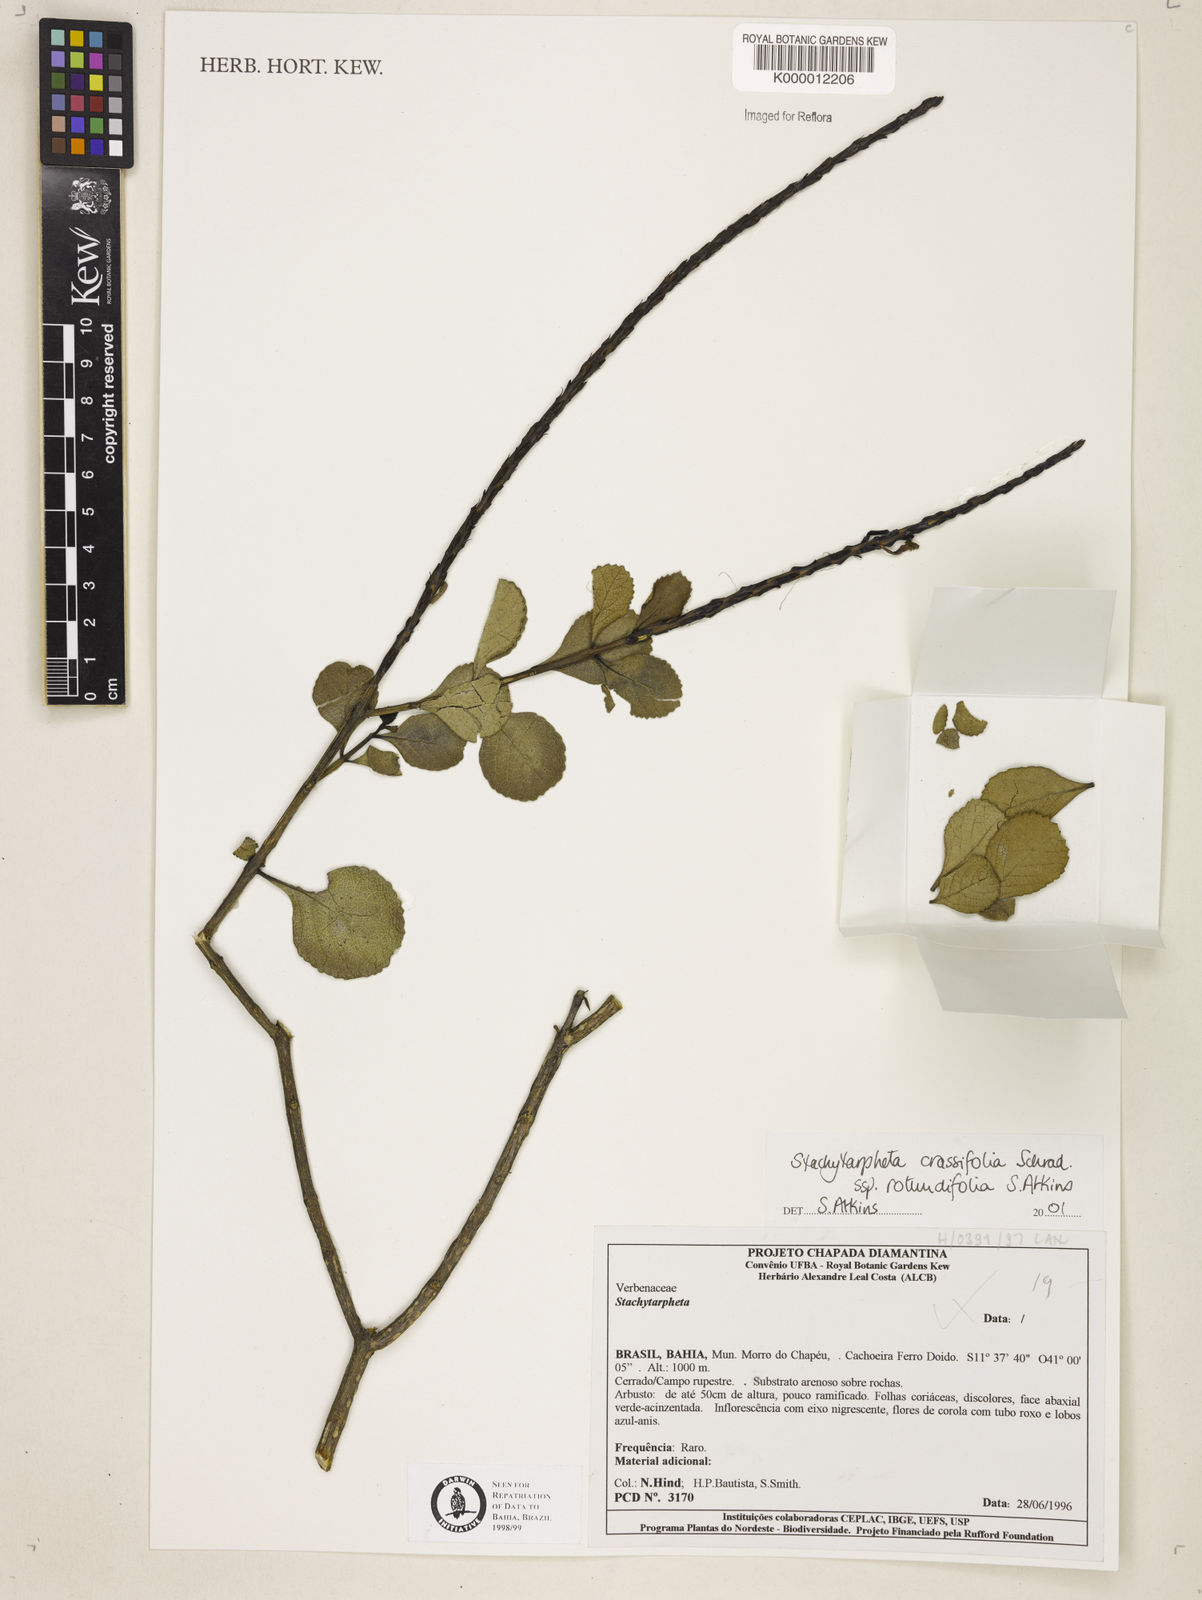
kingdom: Plantae
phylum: Tracheophyta
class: Magnoliopsida
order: Lamiales
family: Verbenaceae
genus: Stachytarpheta
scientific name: Stachytarpheta crassifolia
